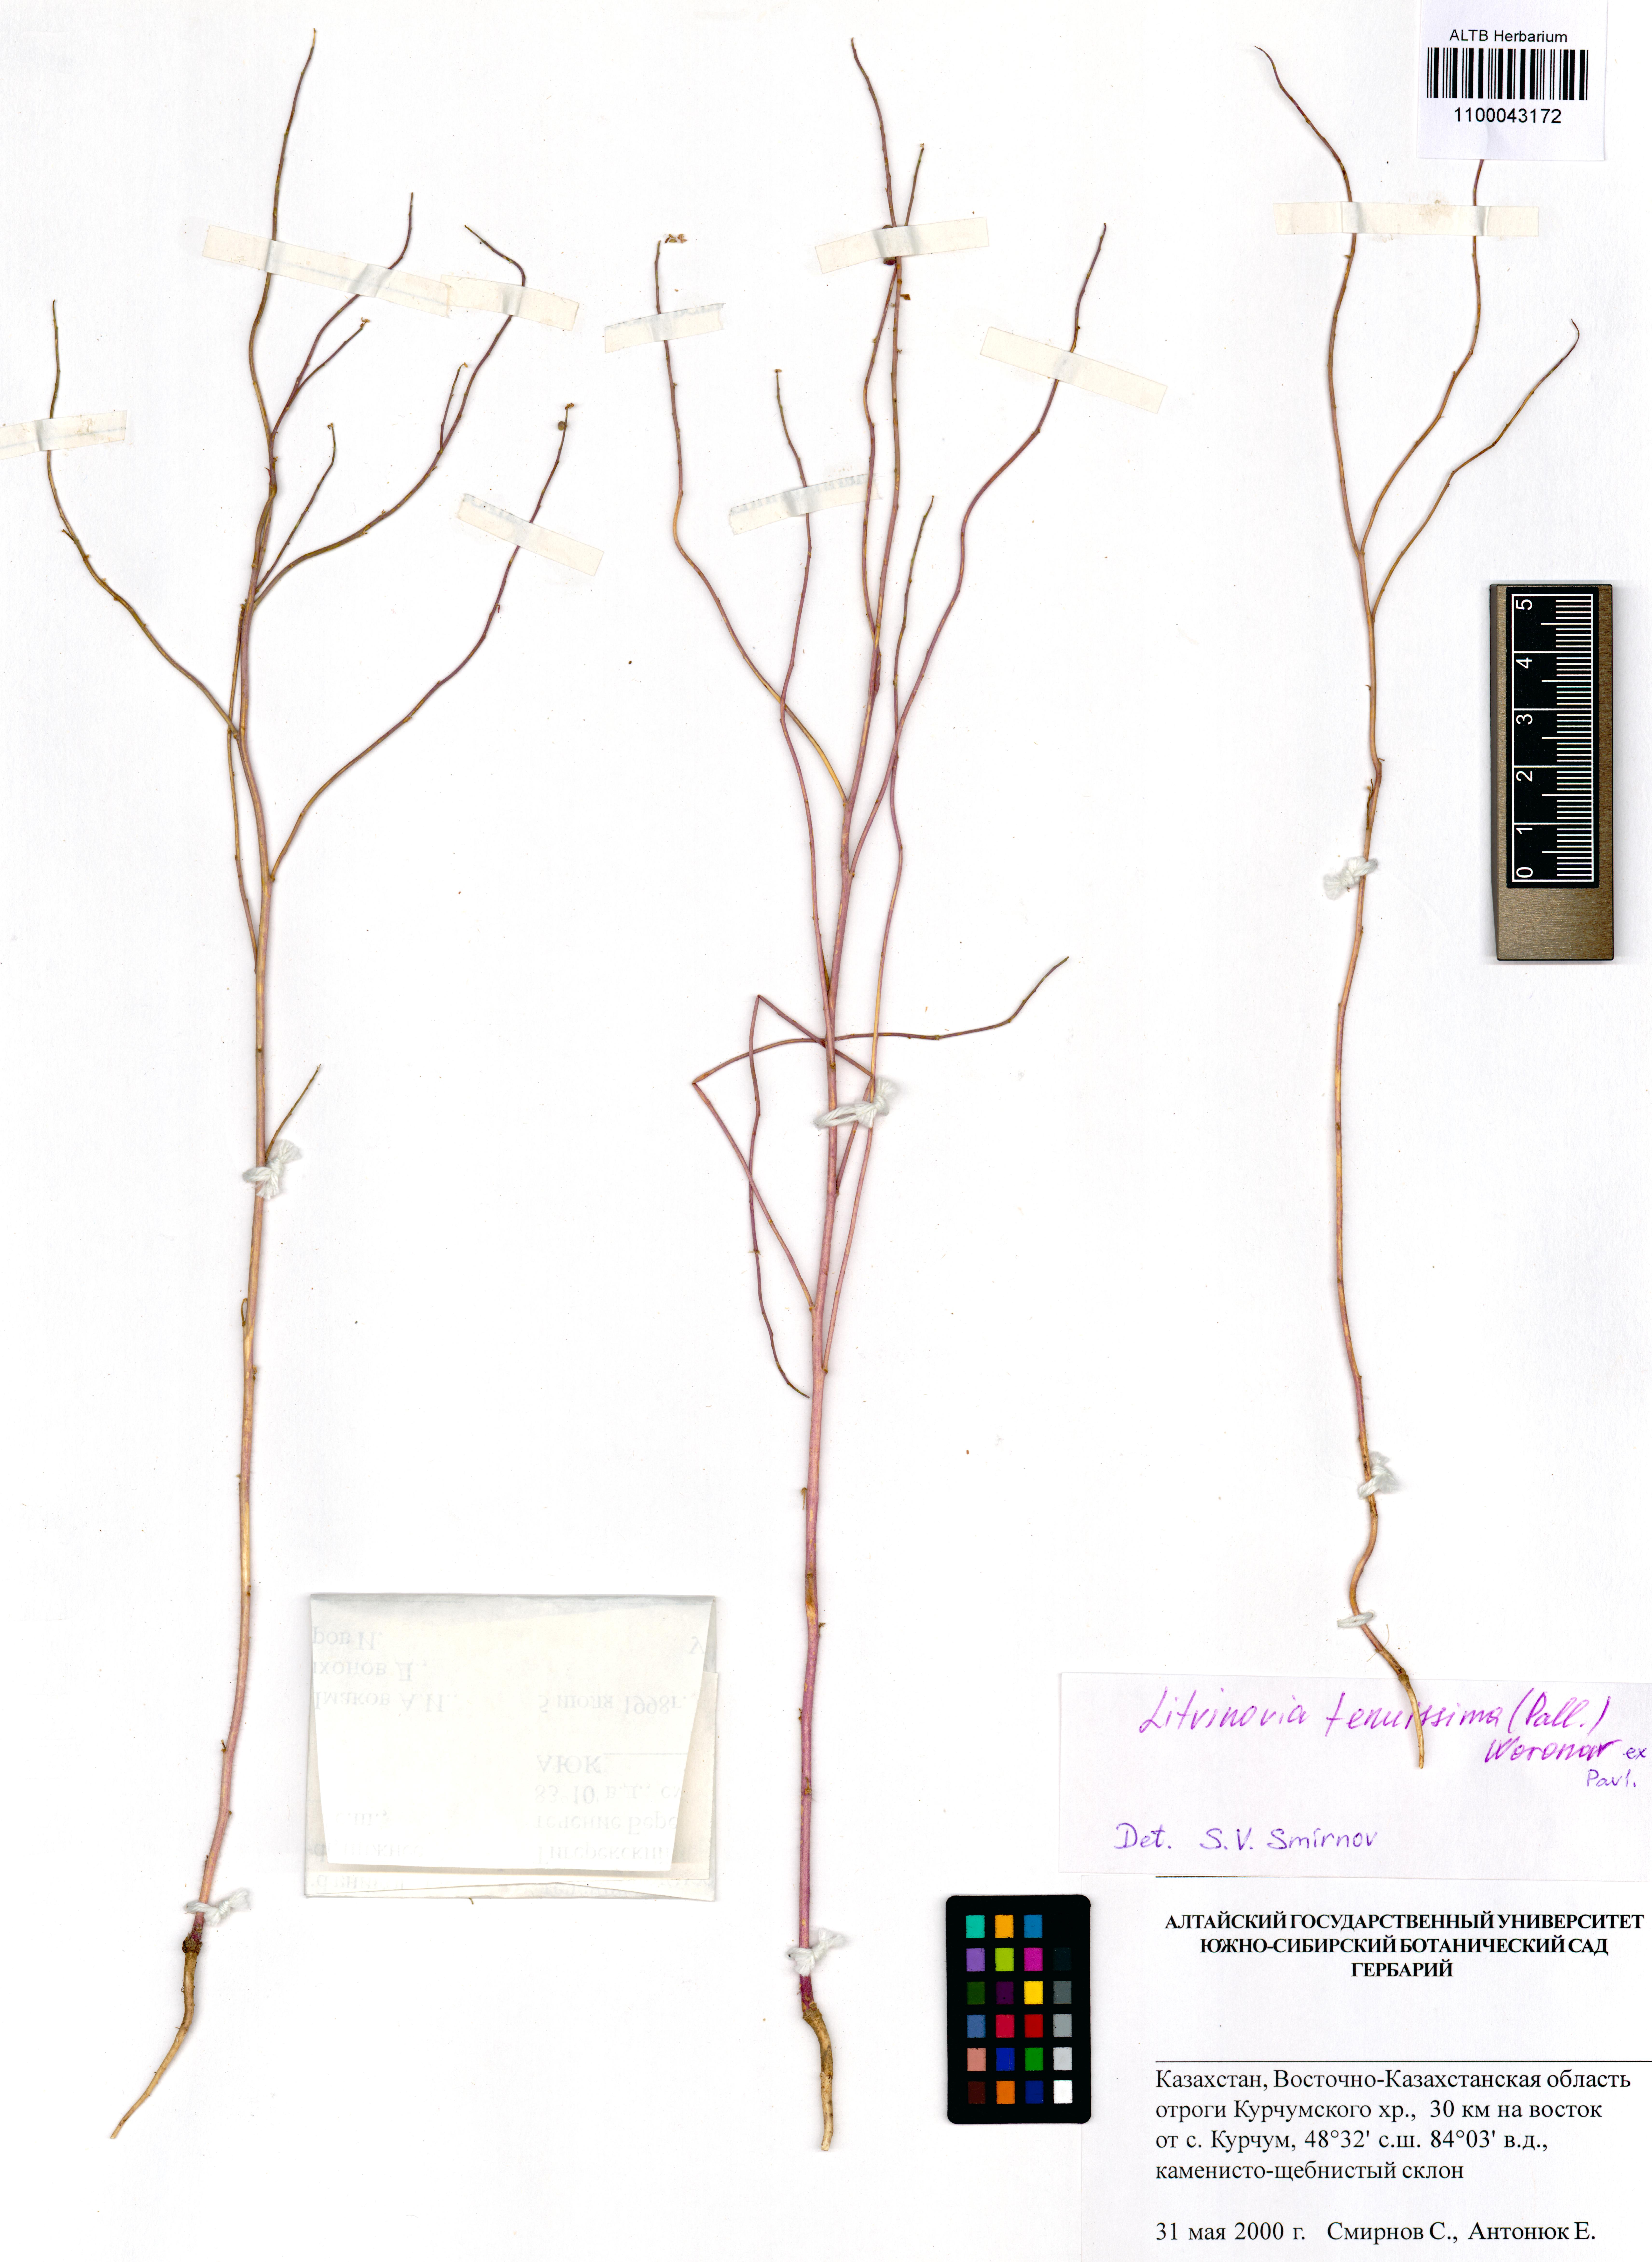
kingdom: Plantae
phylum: Tracheophyta
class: Liliopsida
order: Poales
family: Poaceae
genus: Avenula
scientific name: Avenula pubescens
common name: Downy alpine oatgrass
